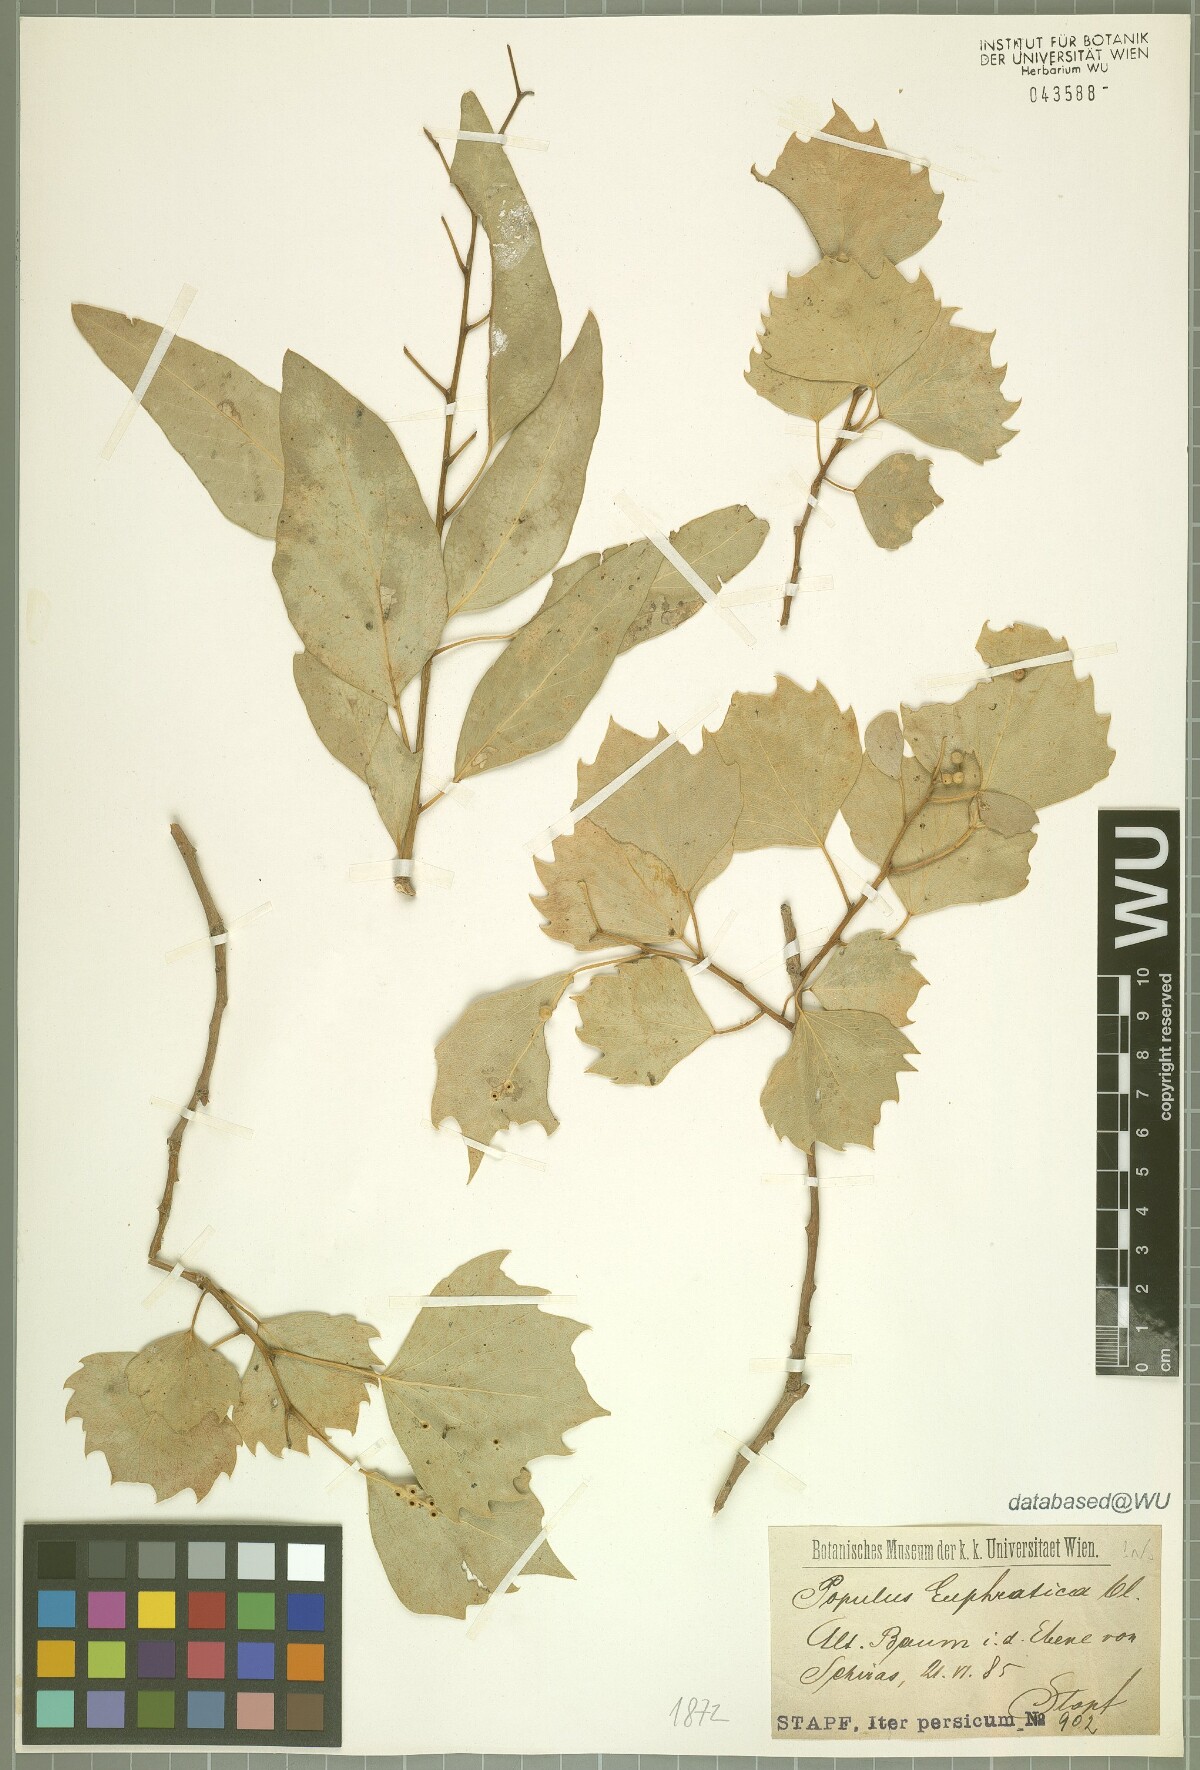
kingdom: Plantae
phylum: Tracheophyta
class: Magnoliopsida
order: Malpighiales
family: Salicaceae
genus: Populus
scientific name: Populus euphratica
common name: Euphrates poplar
